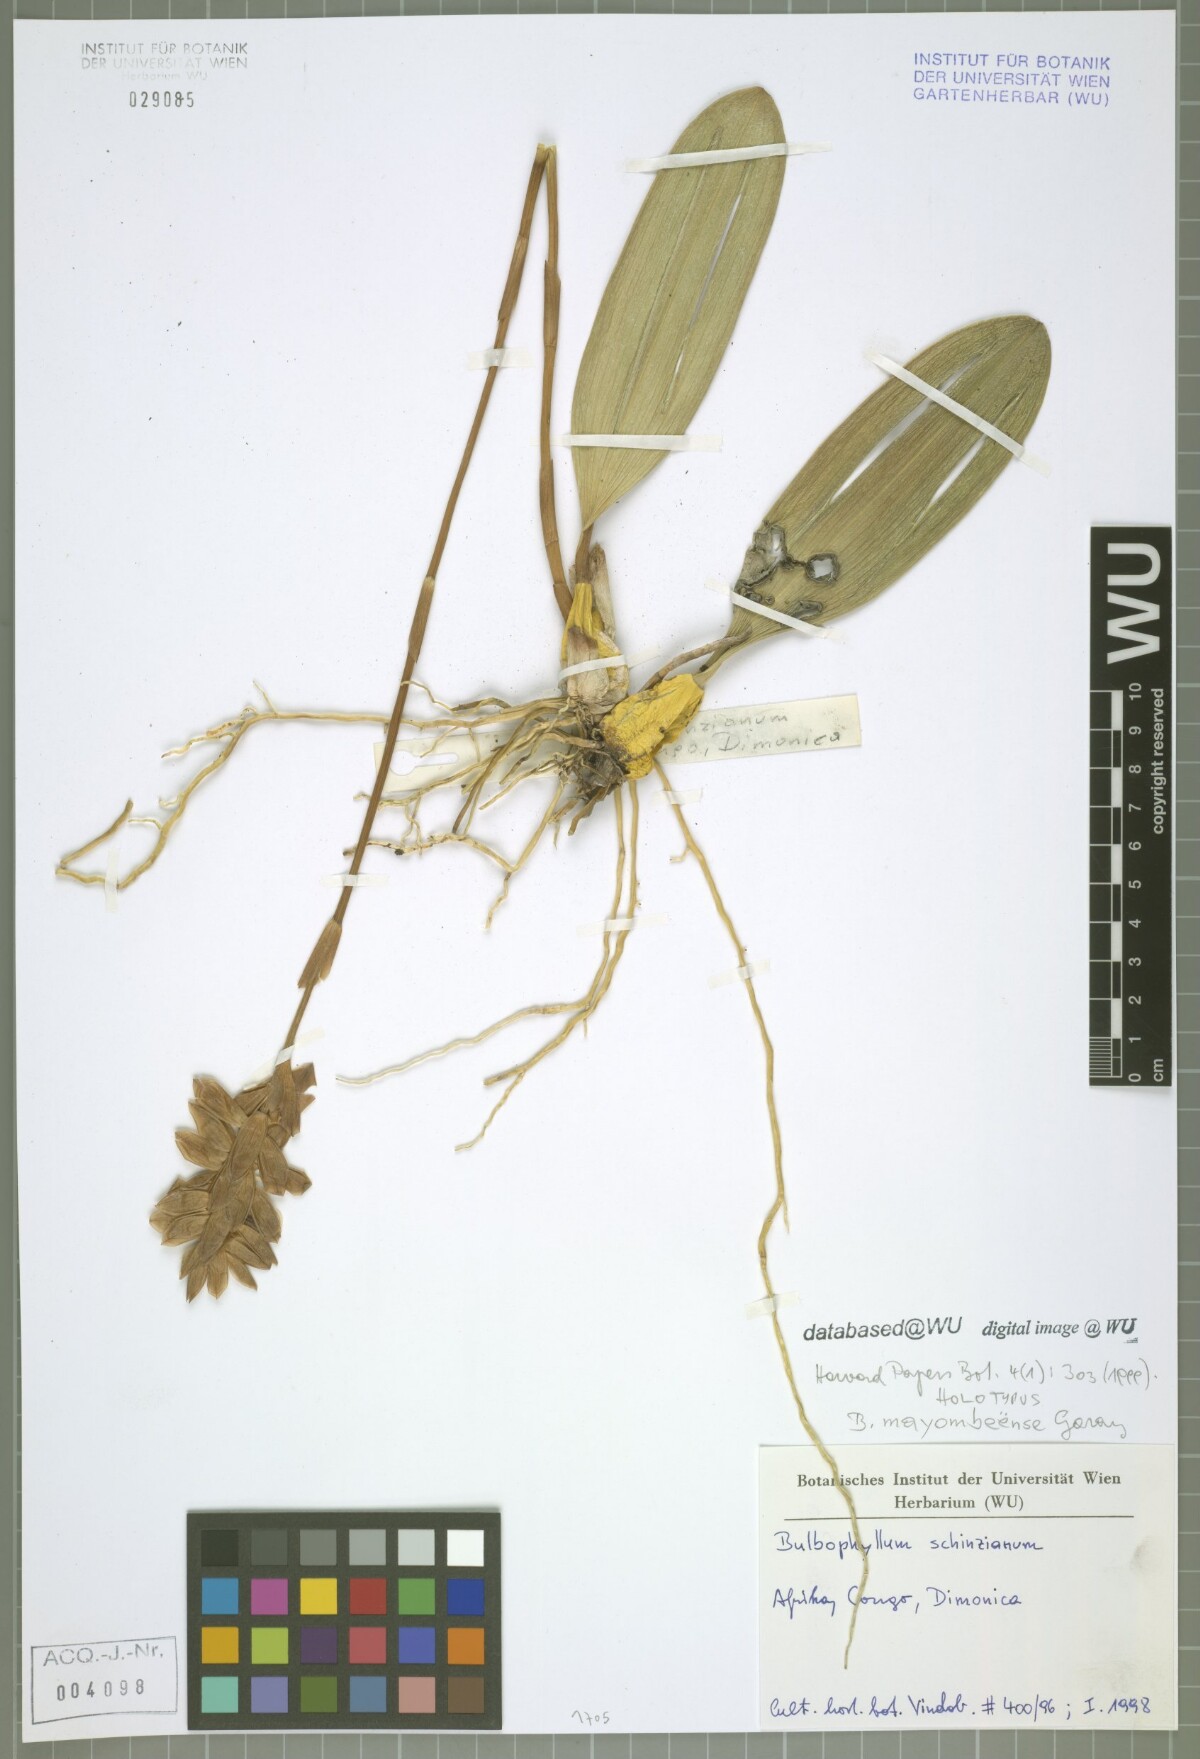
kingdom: Plantae
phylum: Tracheophyta
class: Liliopsida
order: Asparagales
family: Orchidaceae
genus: Bulbophyllum
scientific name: Bulbophyllum schinzianum
